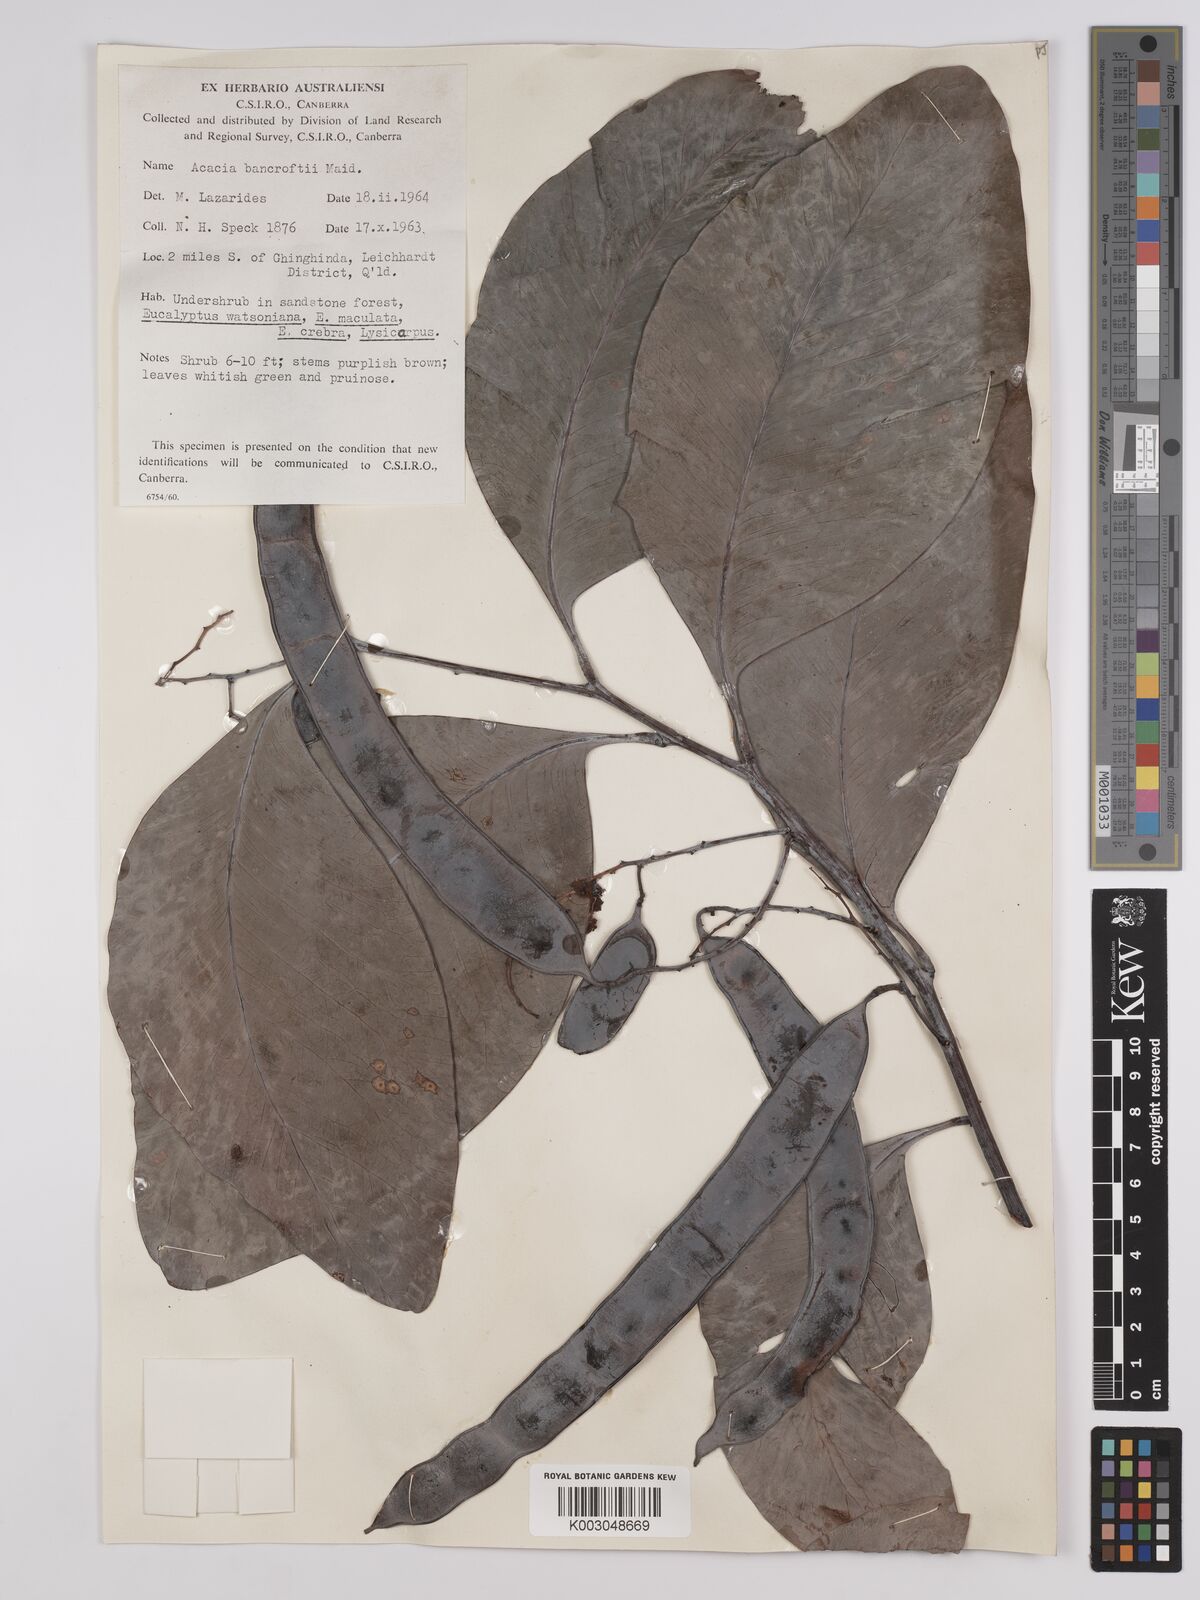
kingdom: Plantae
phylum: Tracheophyta
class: Magnoliopsida
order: Fabales
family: Fabaceae
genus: Acacia
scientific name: Acacia
